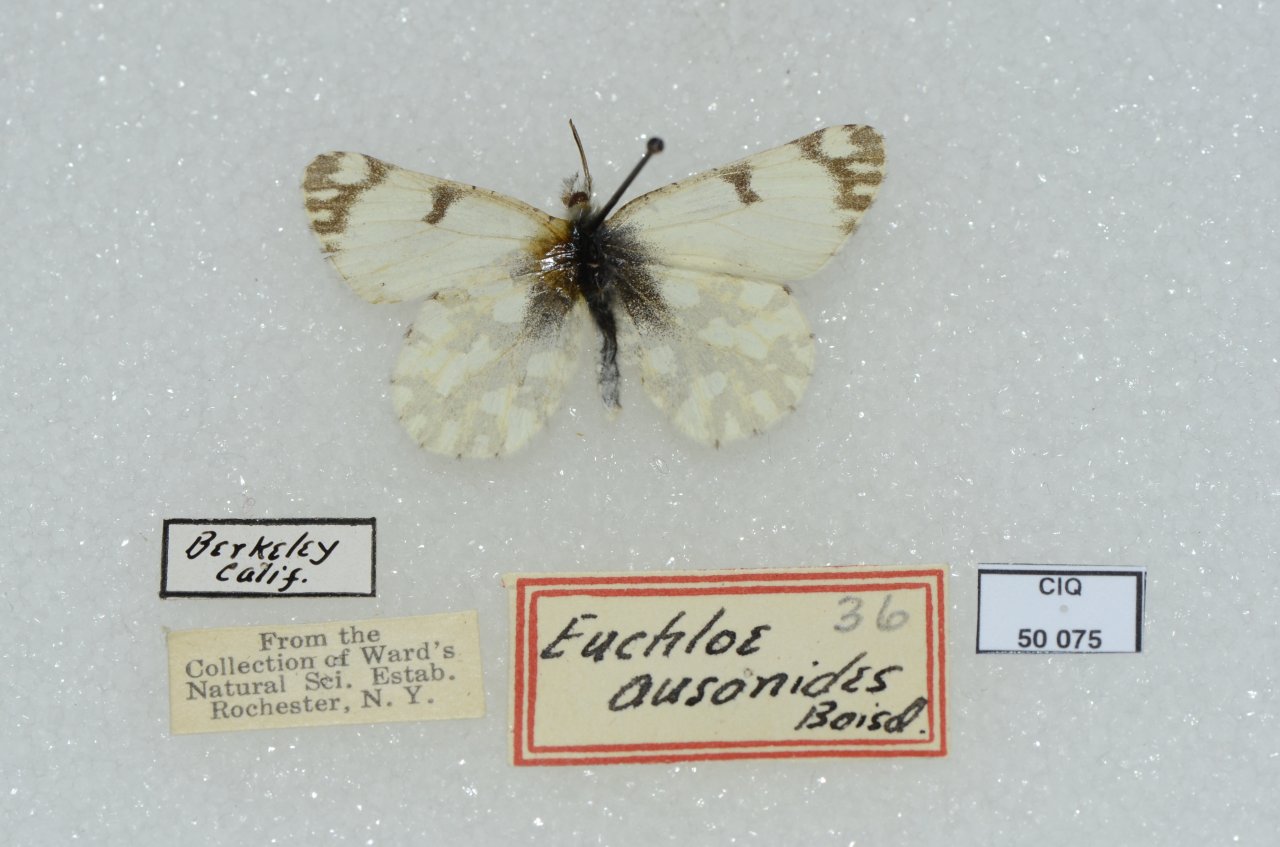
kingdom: Animalia
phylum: Arthropoda
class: Insecta
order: Lepidoptera
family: Pieridae
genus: Euchloe
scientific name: Euchloe ausonides
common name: Large Marble
